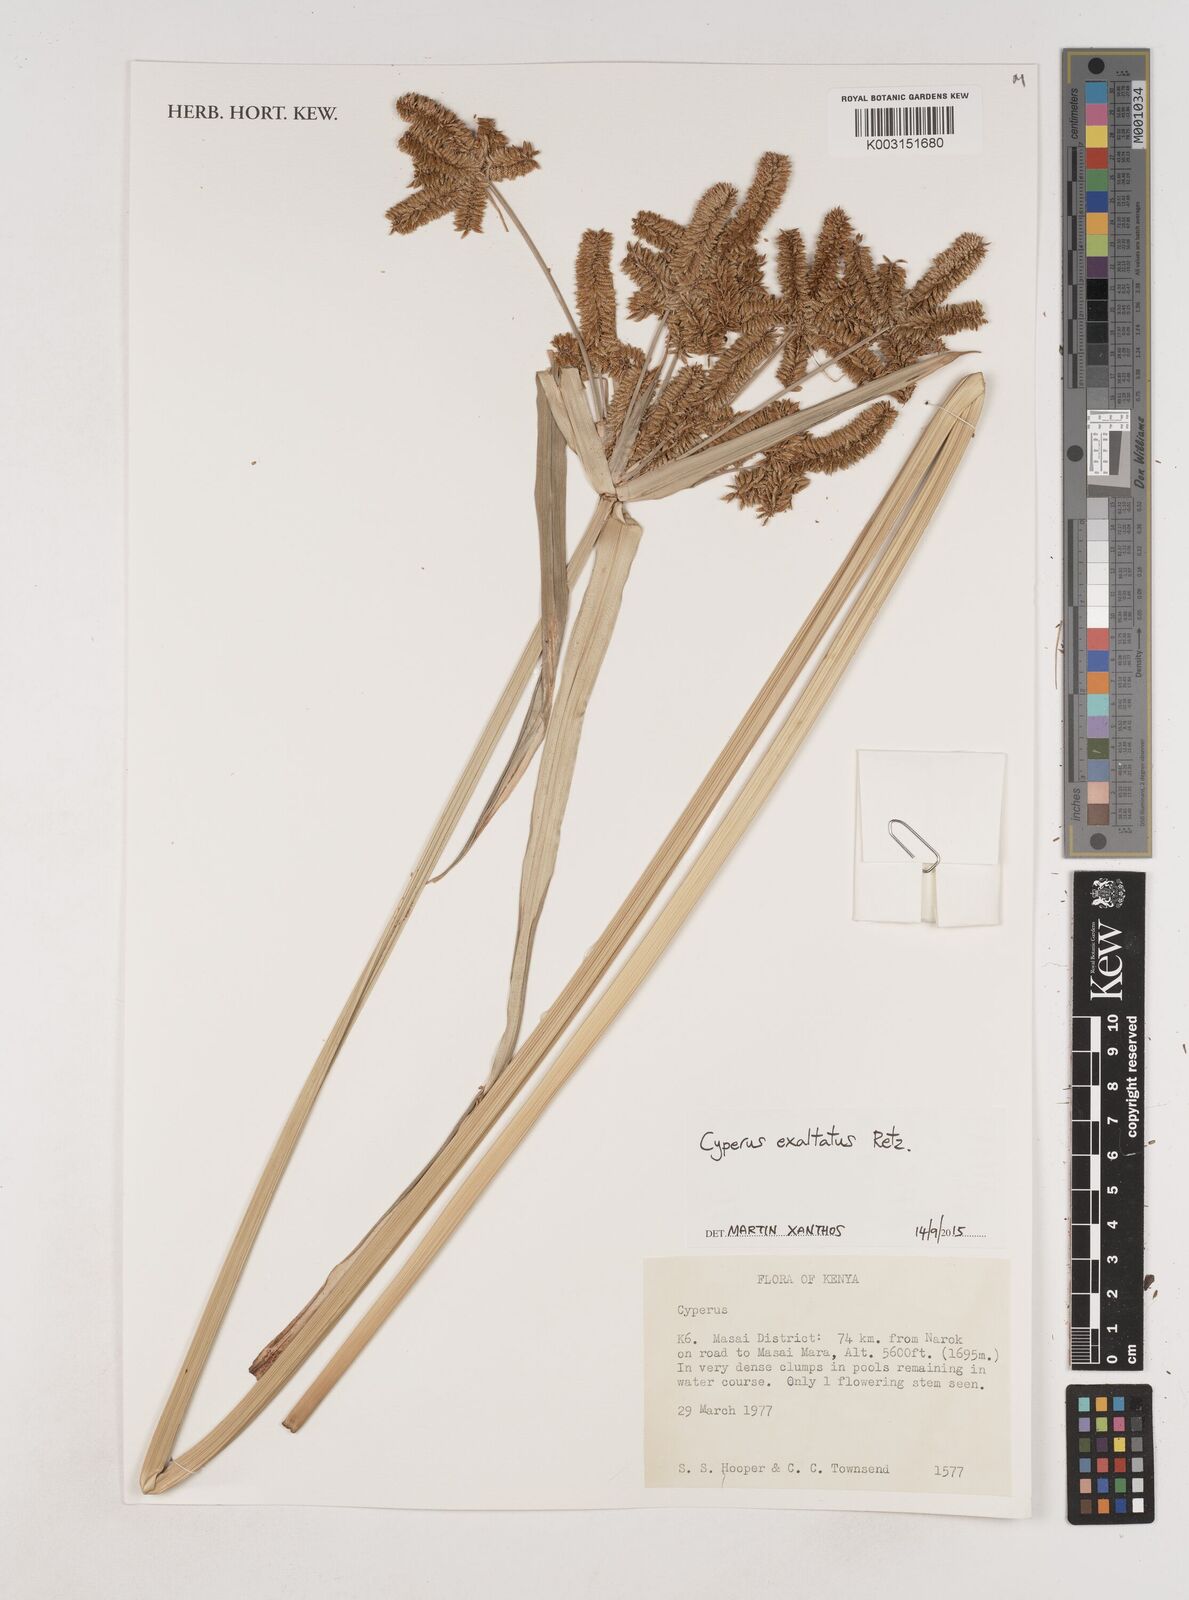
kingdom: Plantae
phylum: Tracheophyta
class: Liliopsida
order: Poales
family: Cyperaceae
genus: Cyperus
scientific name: Cyperus exaltatus
